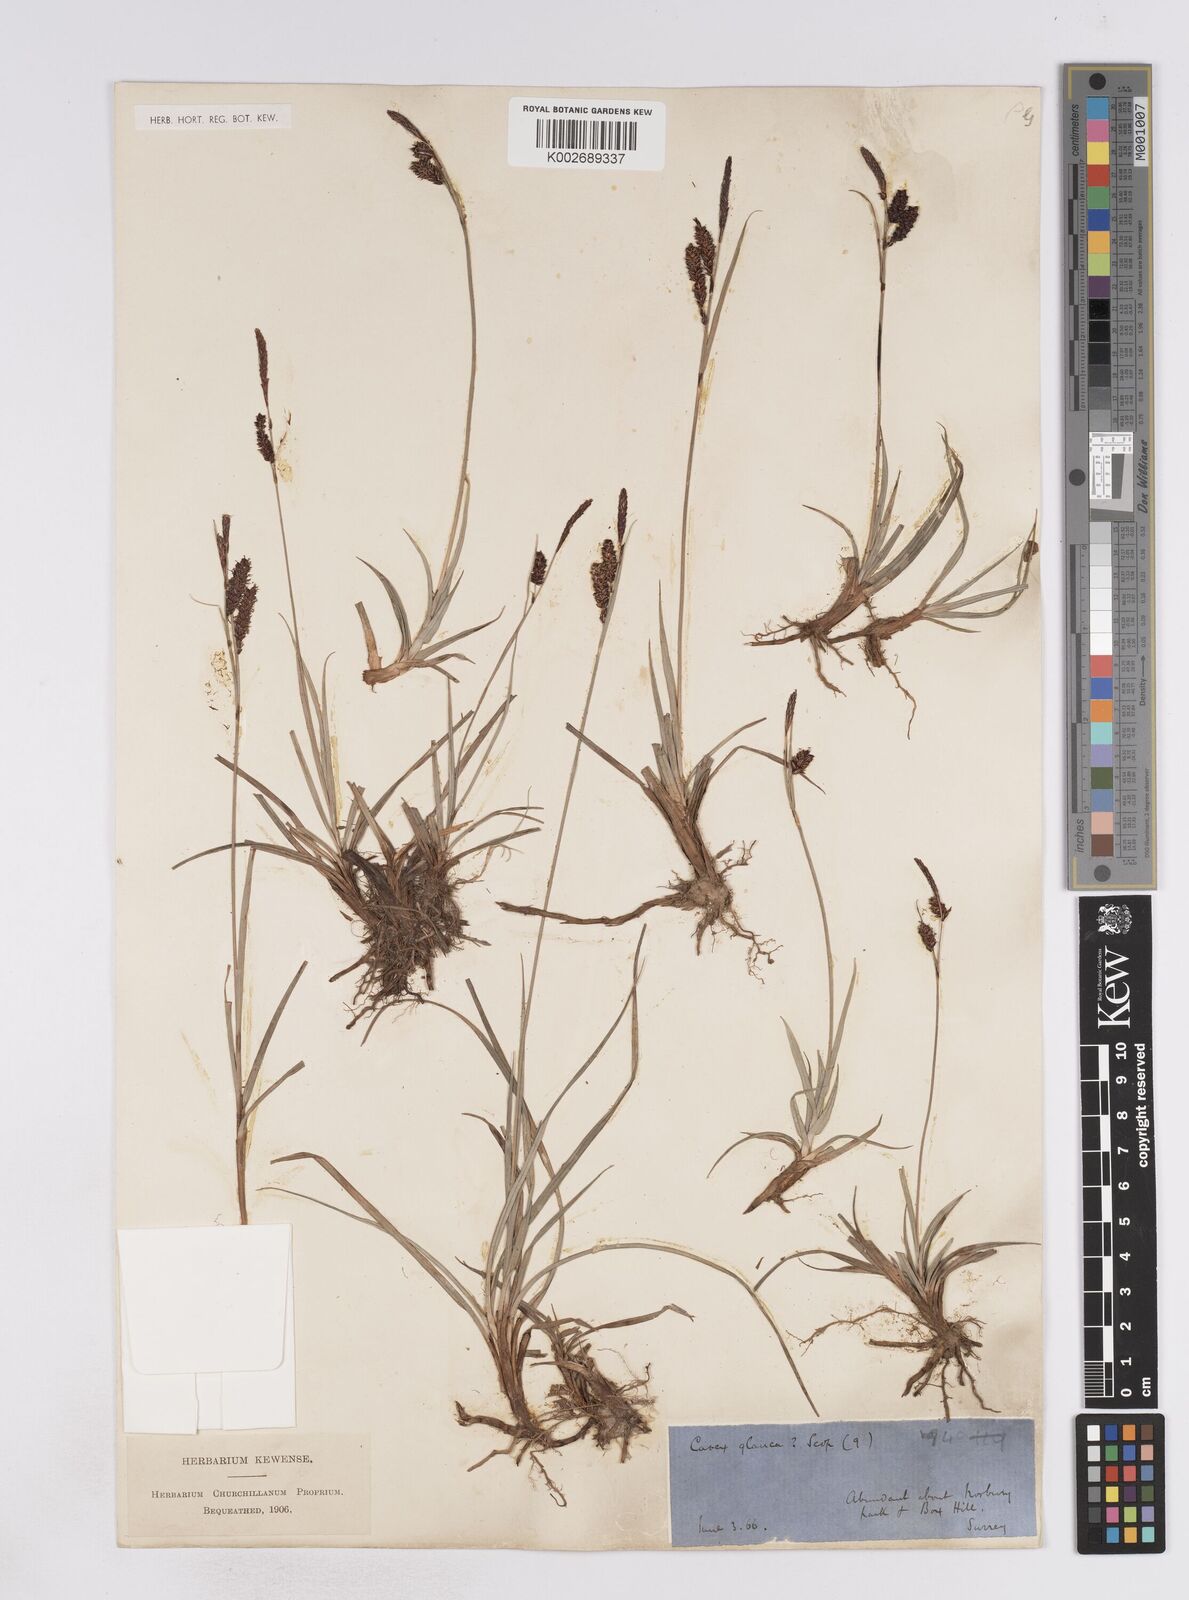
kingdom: Plantae
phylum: Tracheophyta
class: Liliopsida
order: Poales
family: Cyperaceae
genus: Carex
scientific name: Carex flacca
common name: Glaucous sedge
